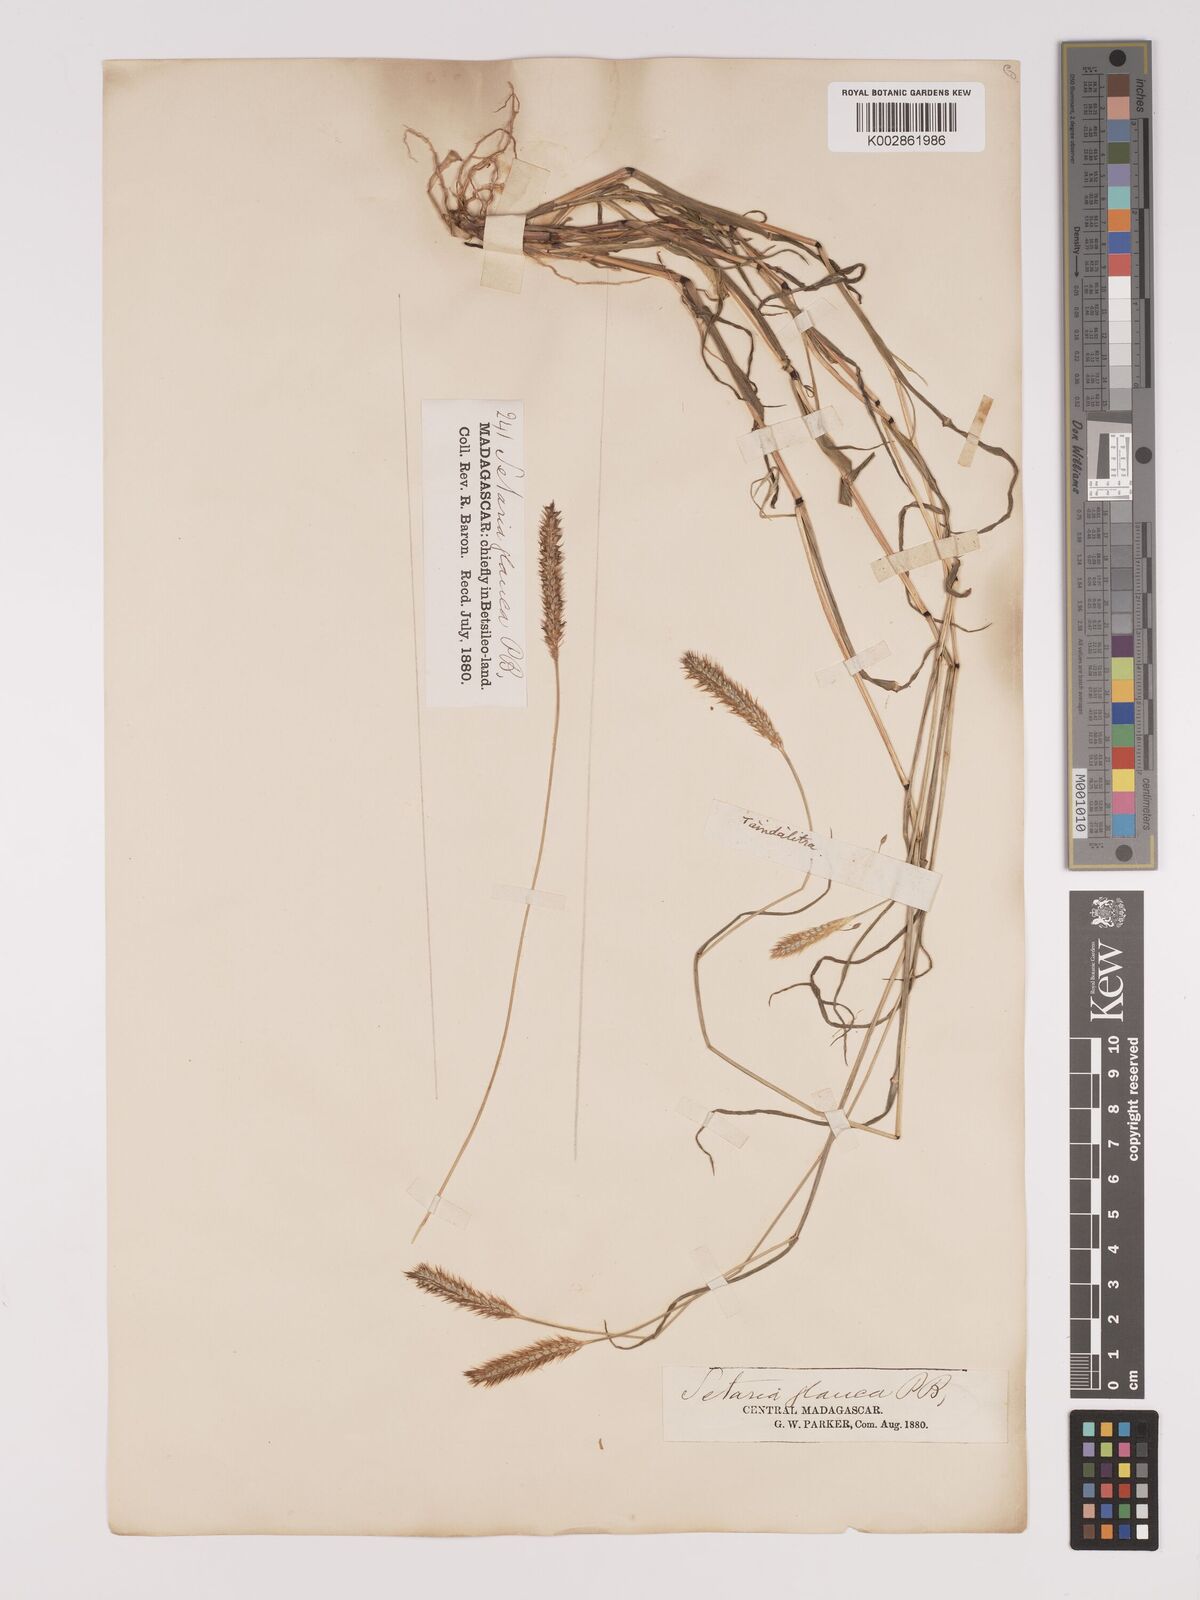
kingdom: Plantae
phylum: Tracheophyta
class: Liliopsida
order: Poales
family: Poaceae
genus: Setaria
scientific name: Setaria pumila
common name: Yellow bristle-grass
